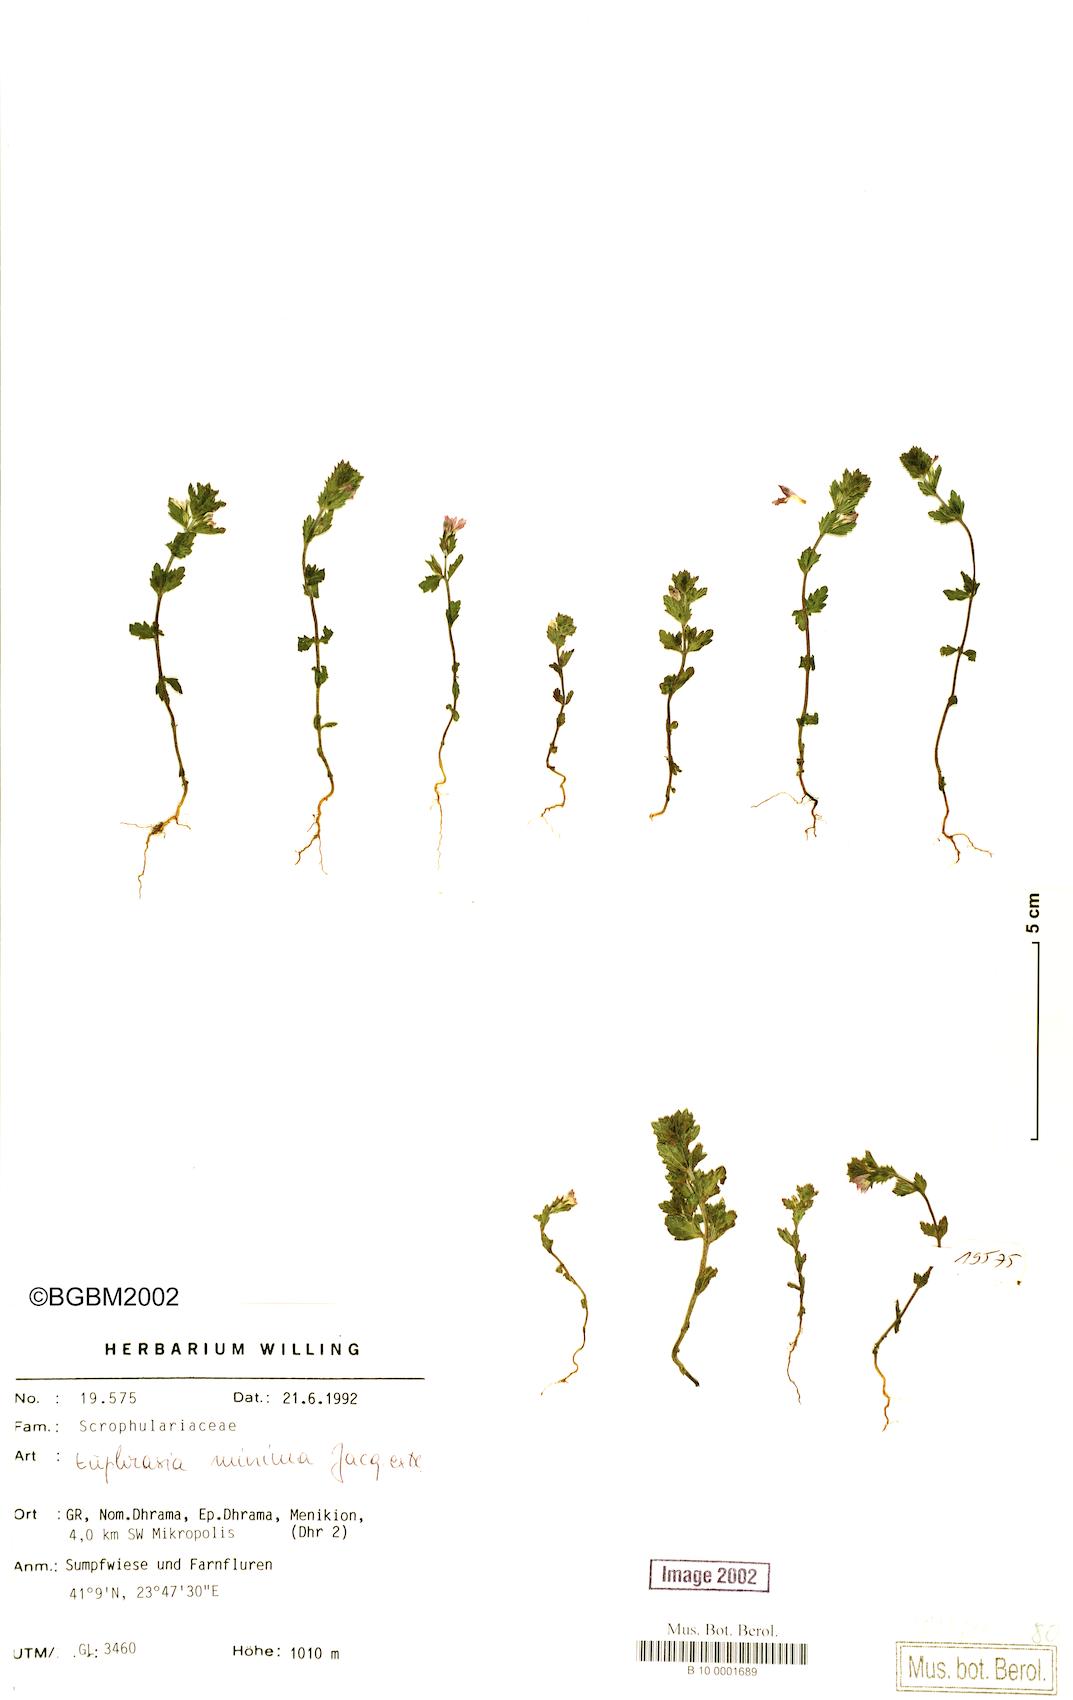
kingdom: Plantae
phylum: Tracheophyta
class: Magnoliopsida
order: Lamiales
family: Orobanchaceae
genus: Euphrasia
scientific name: Euphrasia minima
